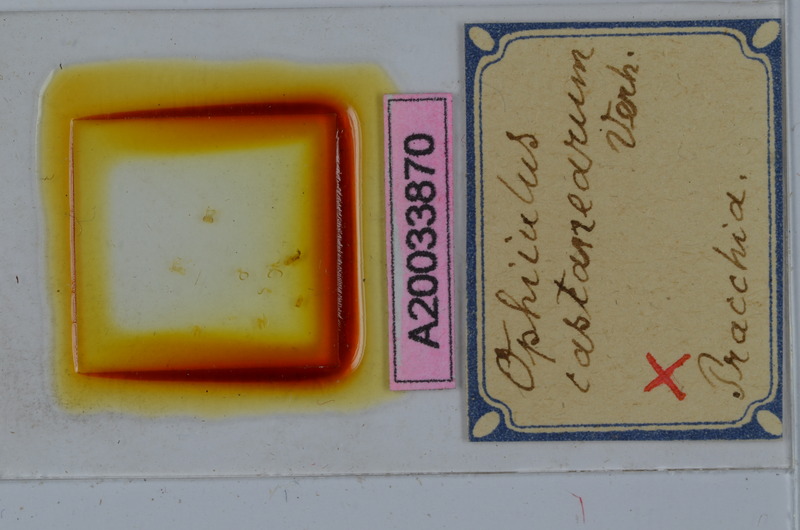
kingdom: Animalia
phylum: Arthropoda
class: Diplopoda
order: Julida
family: Julidae
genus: Ophyiulus
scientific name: Ophyiulus castanearum
